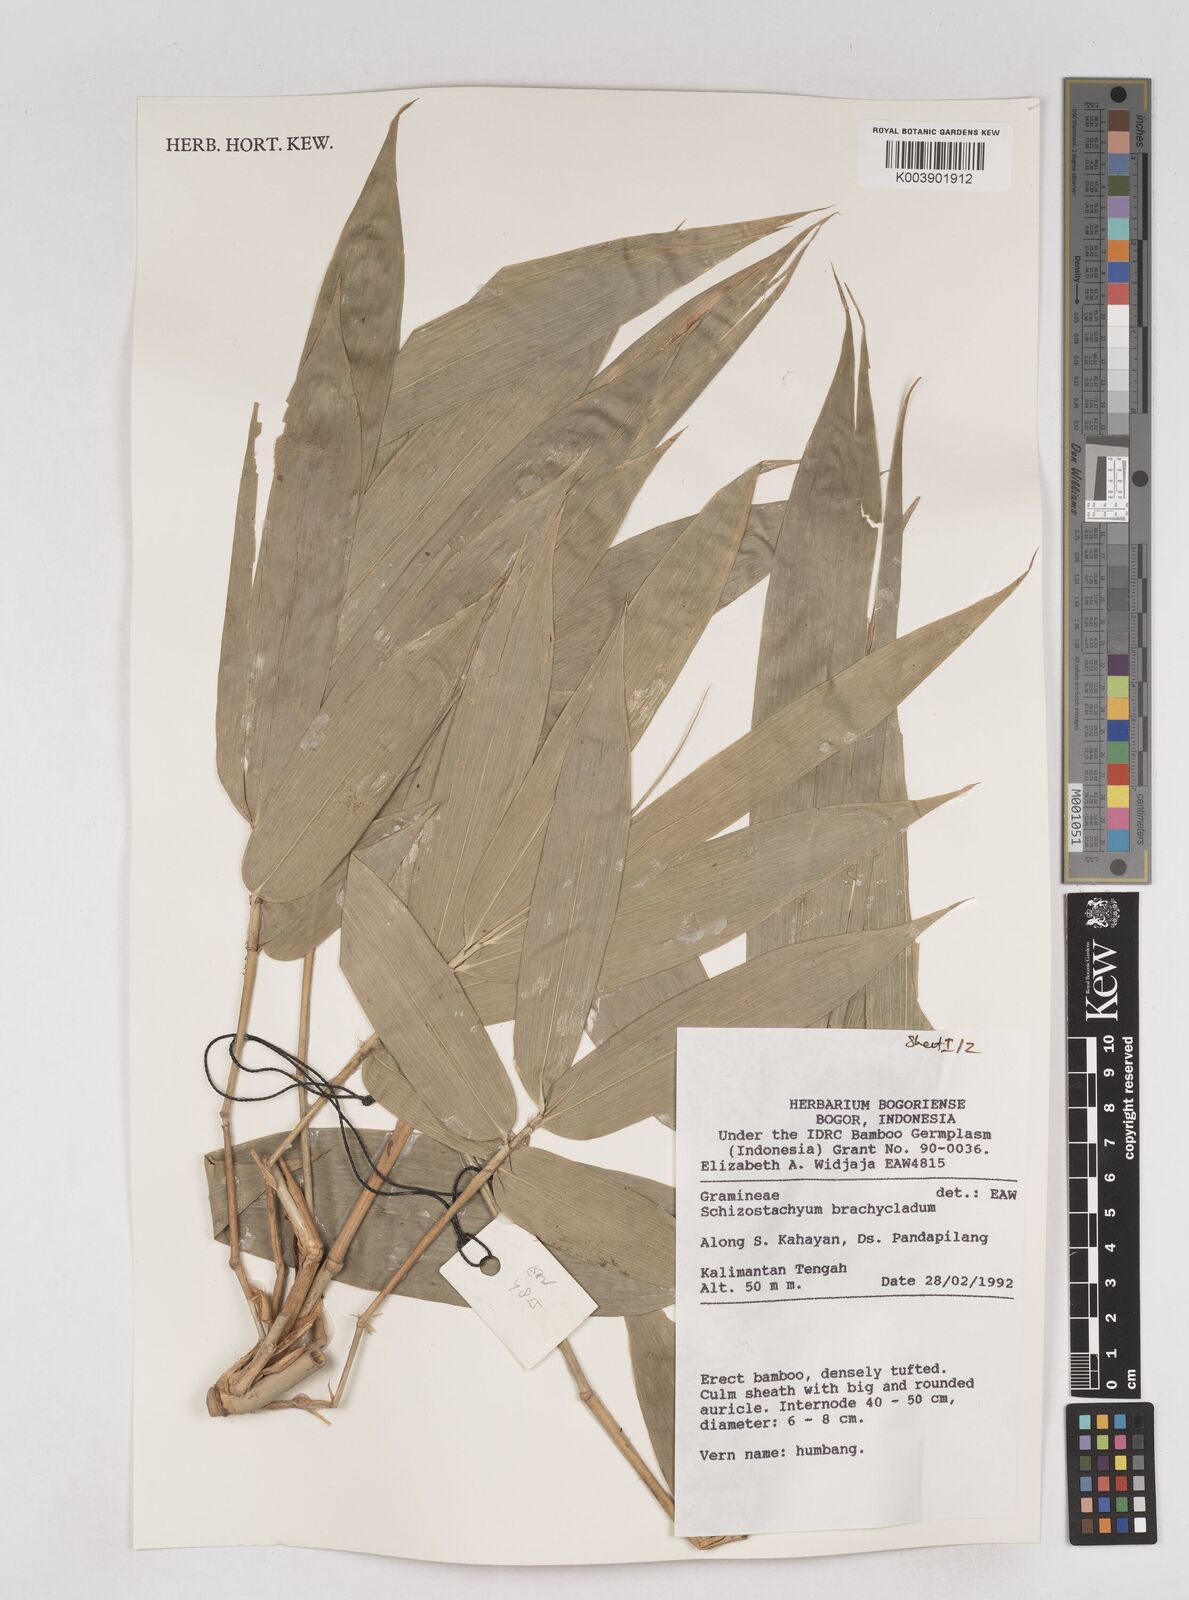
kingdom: Plantae
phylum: Tracheophyta
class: Liliopsida
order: Poales
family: Poaceae
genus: Schizostachyum
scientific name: Schizostachyum brachycladum
